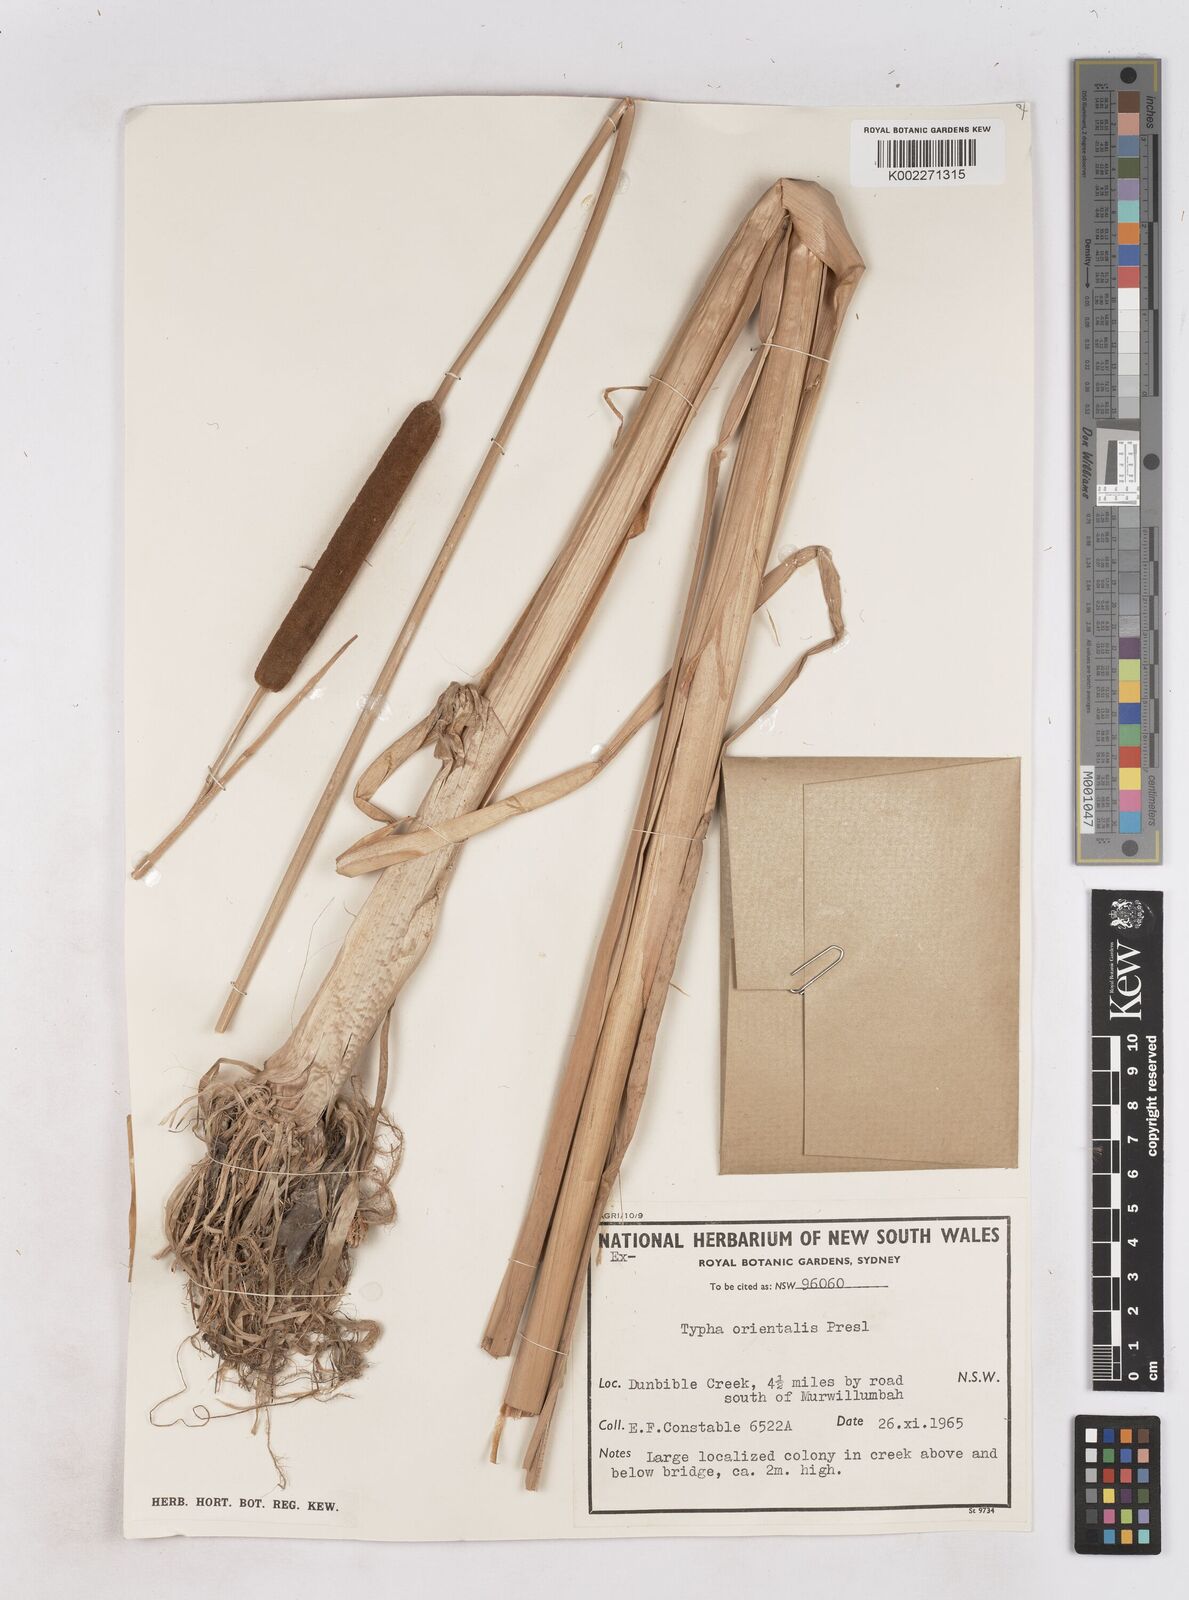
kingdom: Plantae
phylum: Tracheophyta
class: Liliopsida
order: Poales
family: Typhaceae
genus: Typha
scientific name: Typha orientalis
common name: Bullrush
